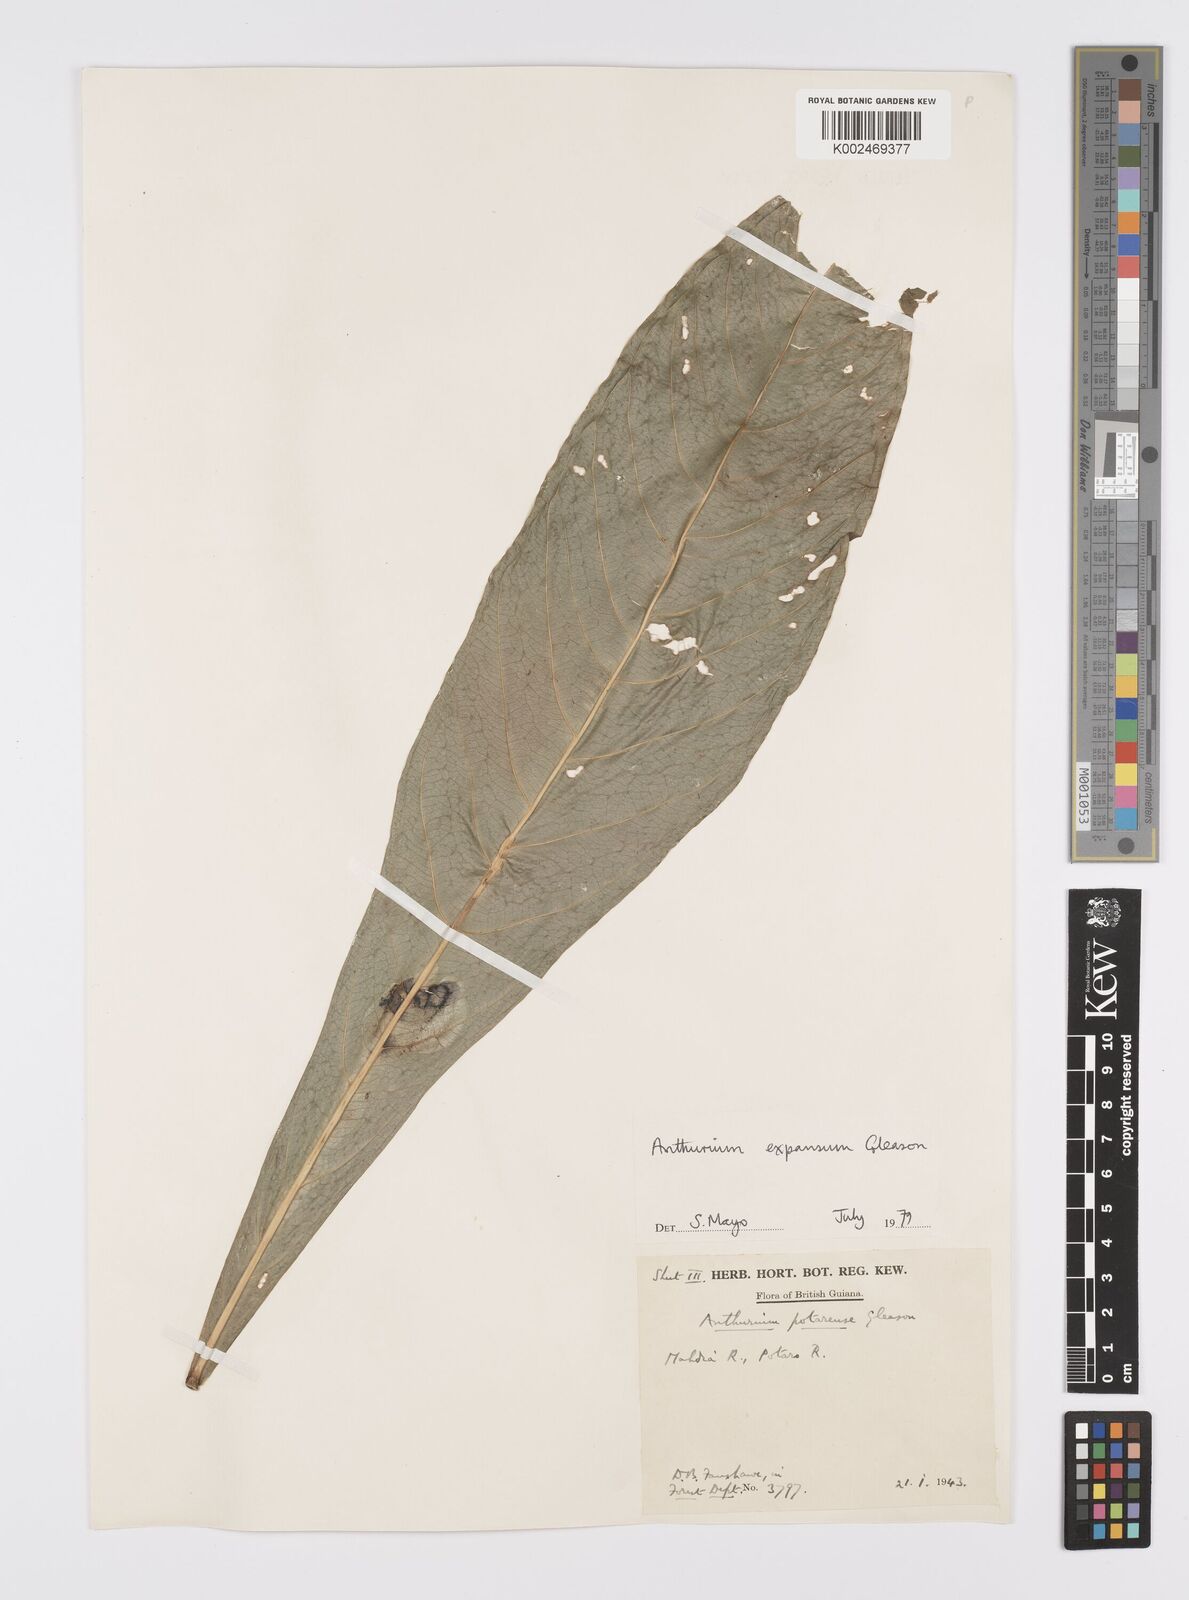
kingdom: Plantae
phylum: Tracheophyta
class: Liliopsida
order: Alismatales
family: Araceae
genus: Anthurium
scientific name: Anthurium expansum
